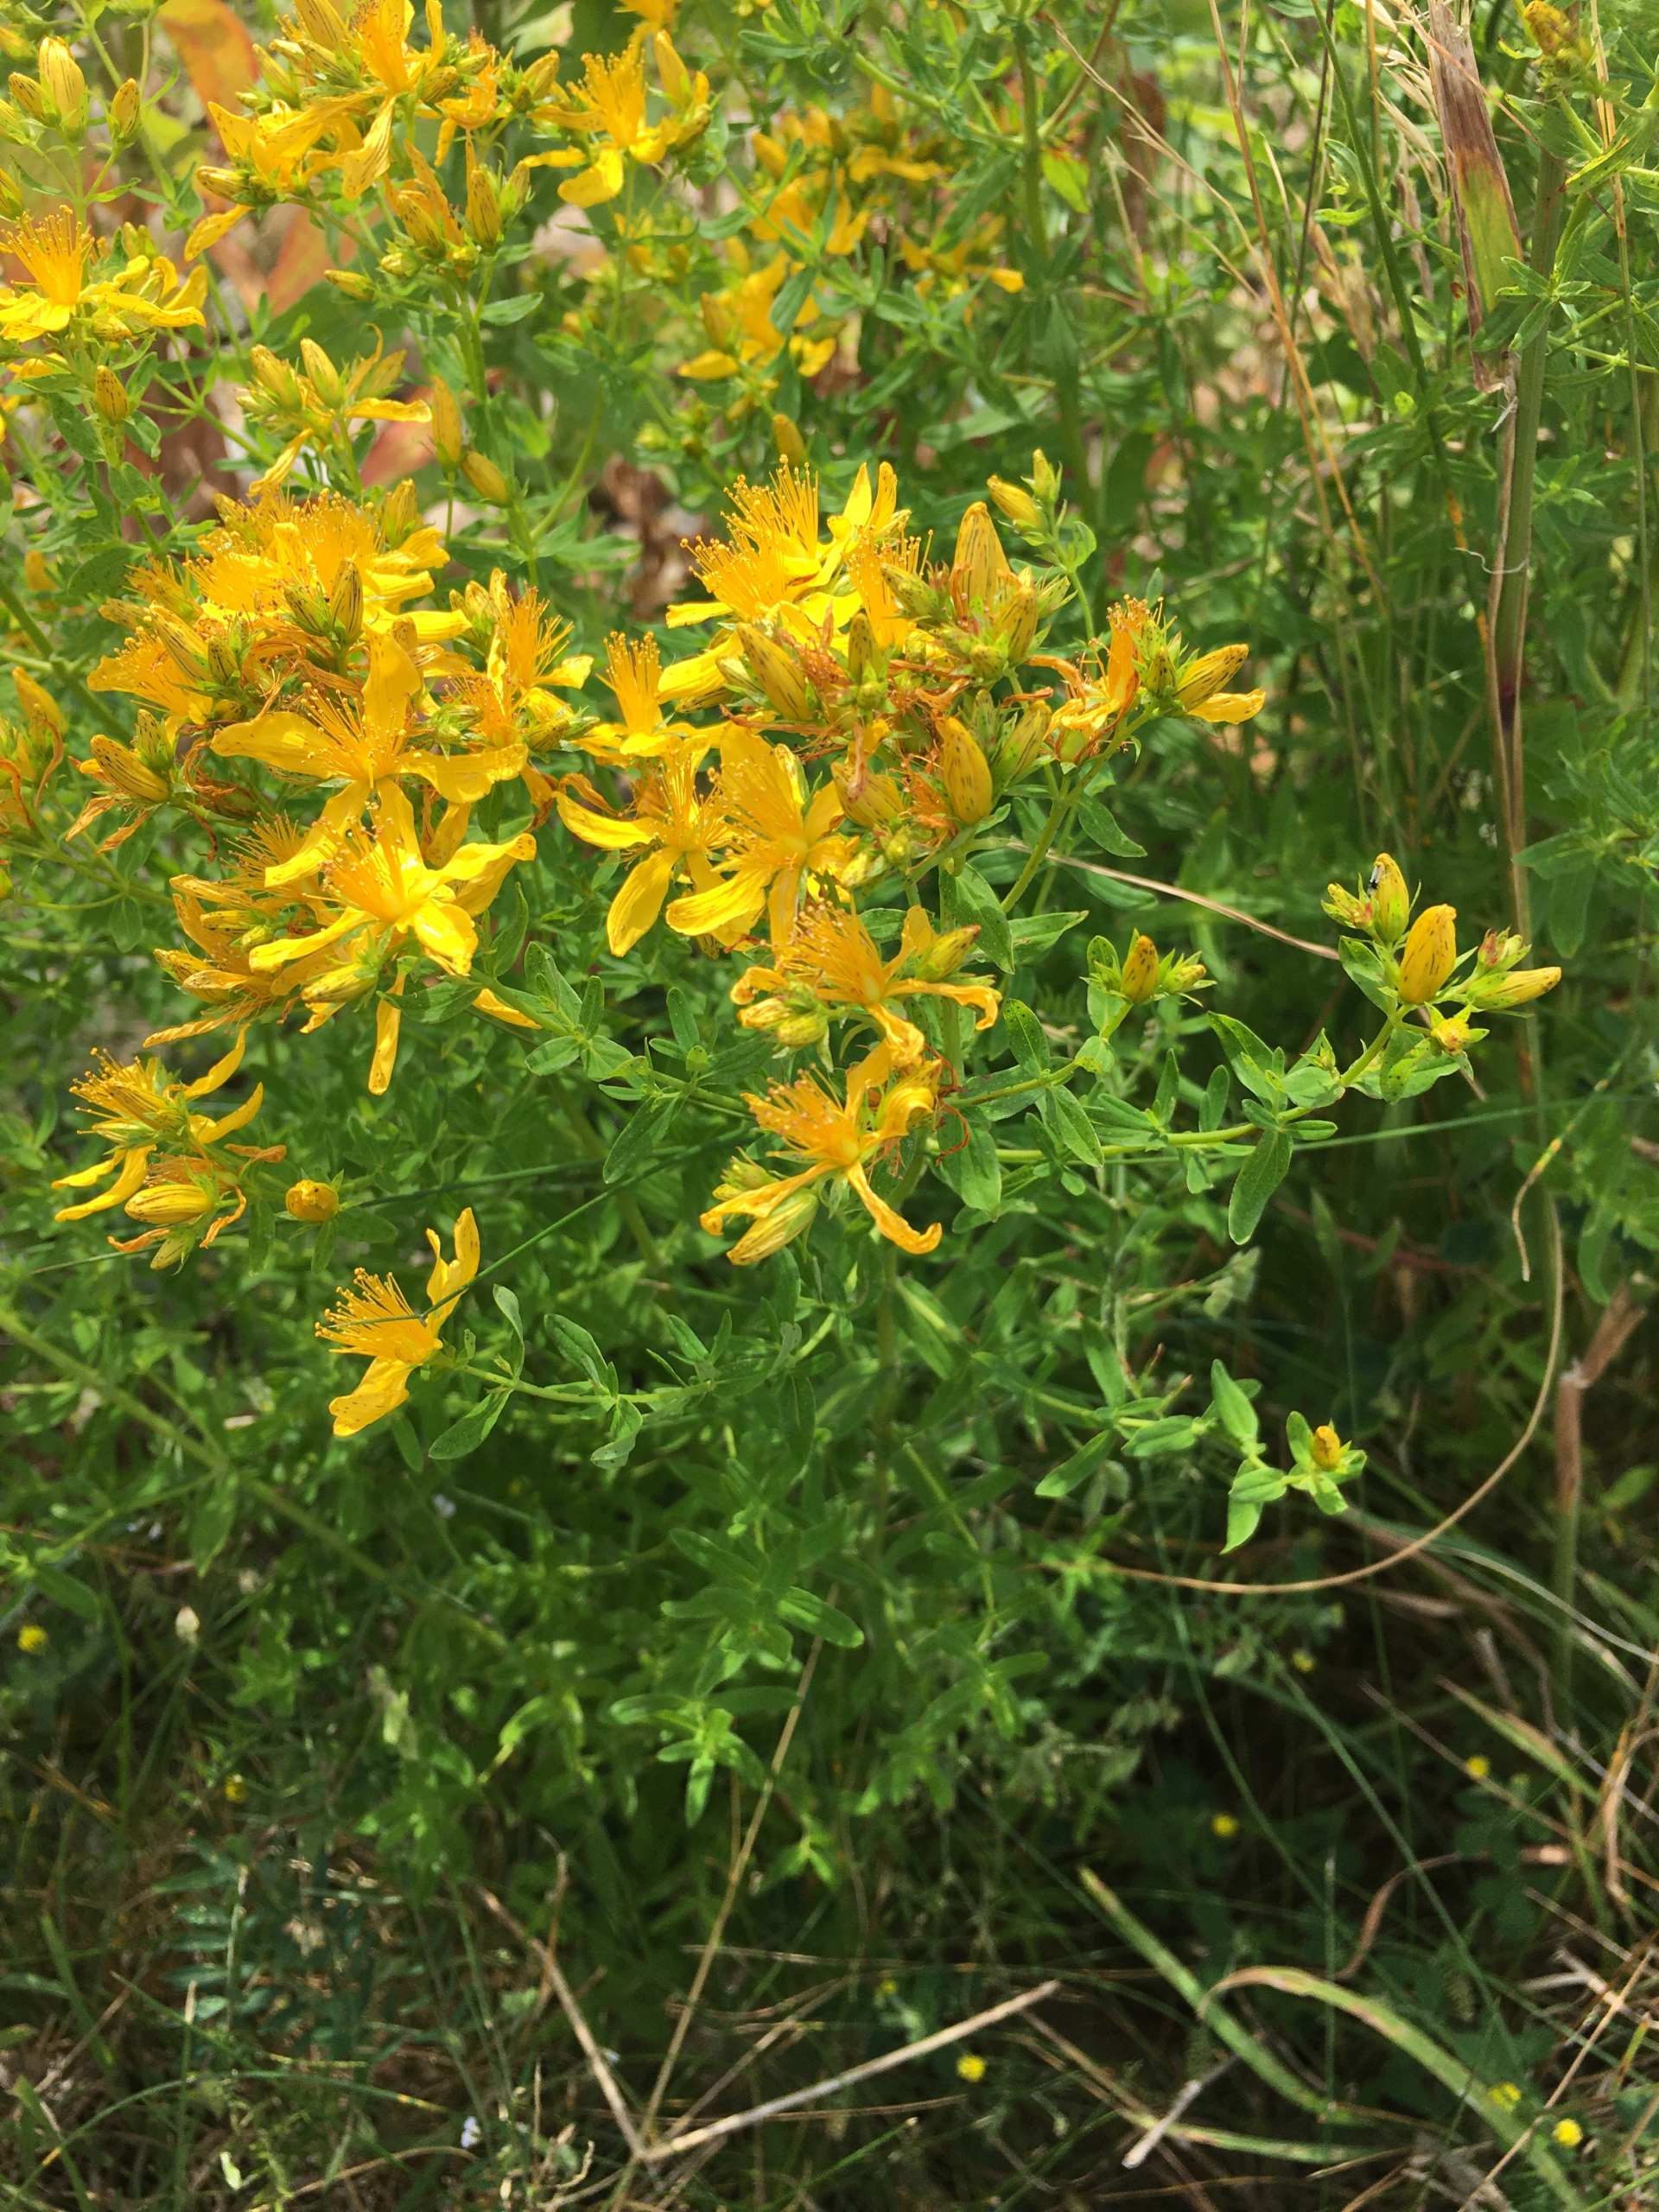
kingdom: Plantae
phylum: Tracheophyta
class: Magnoliopsida
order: Malpighiales
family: Hypericaceae
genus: Hypericum
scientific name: Hypericum perforatum
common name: Prikbladet perikon
